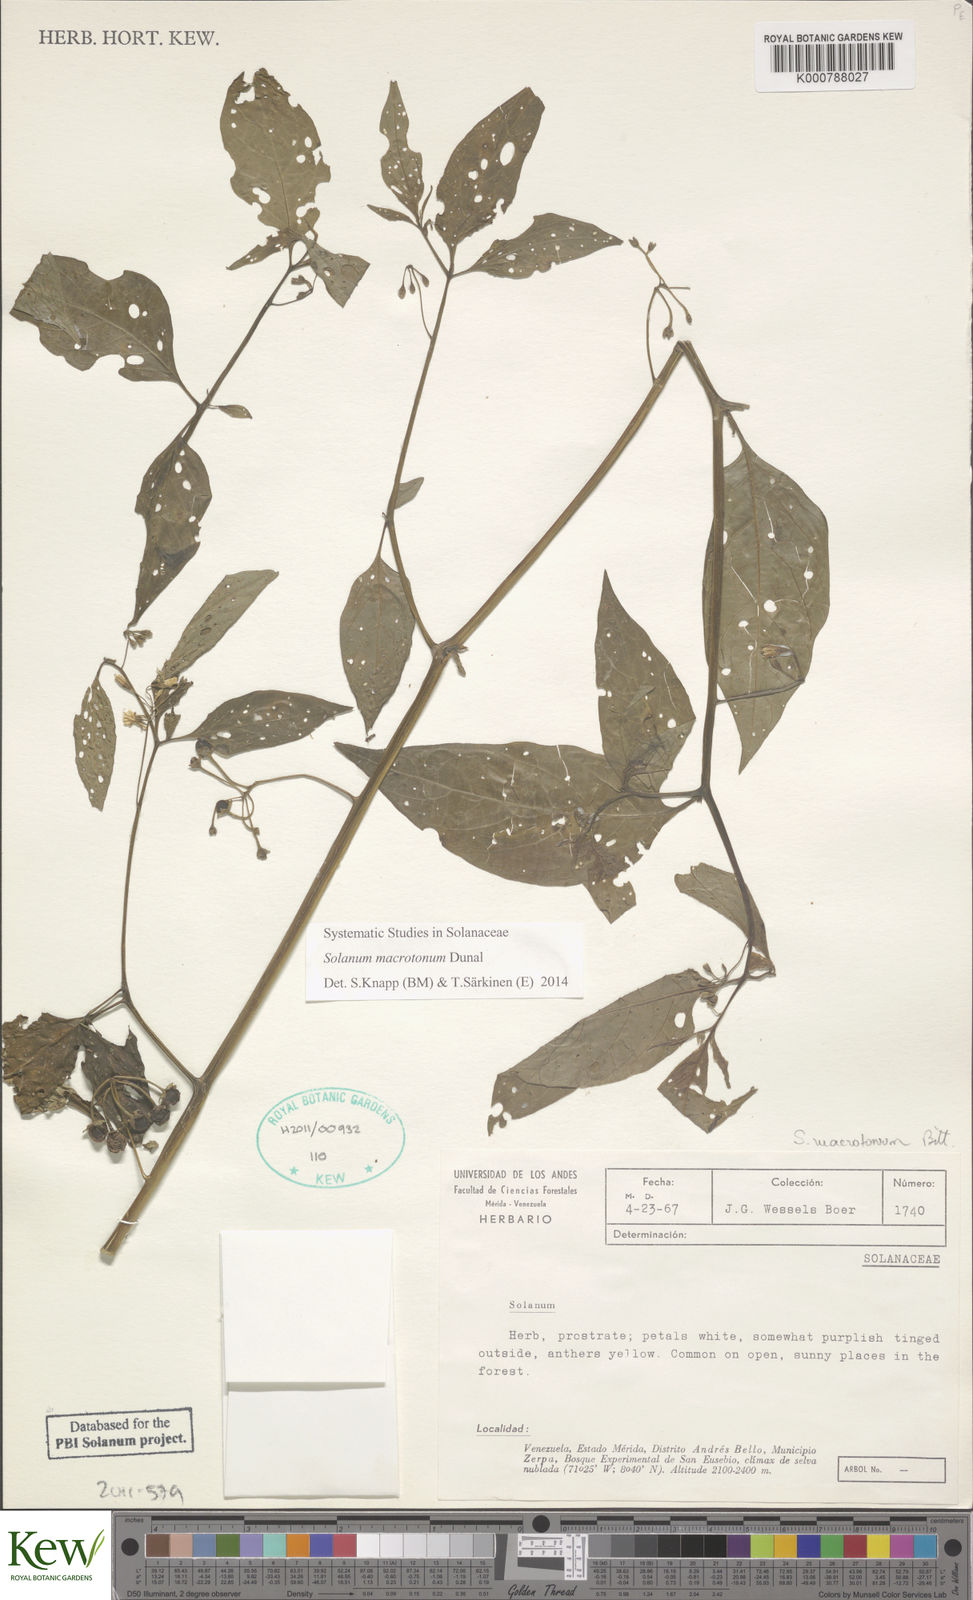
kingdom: Plantae
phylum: Tracheophyta
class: Magnoliopsida
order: Solanales
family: Solanaceae
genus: Solanum
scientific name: Solanum nigrescens
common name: Divine nightshade
